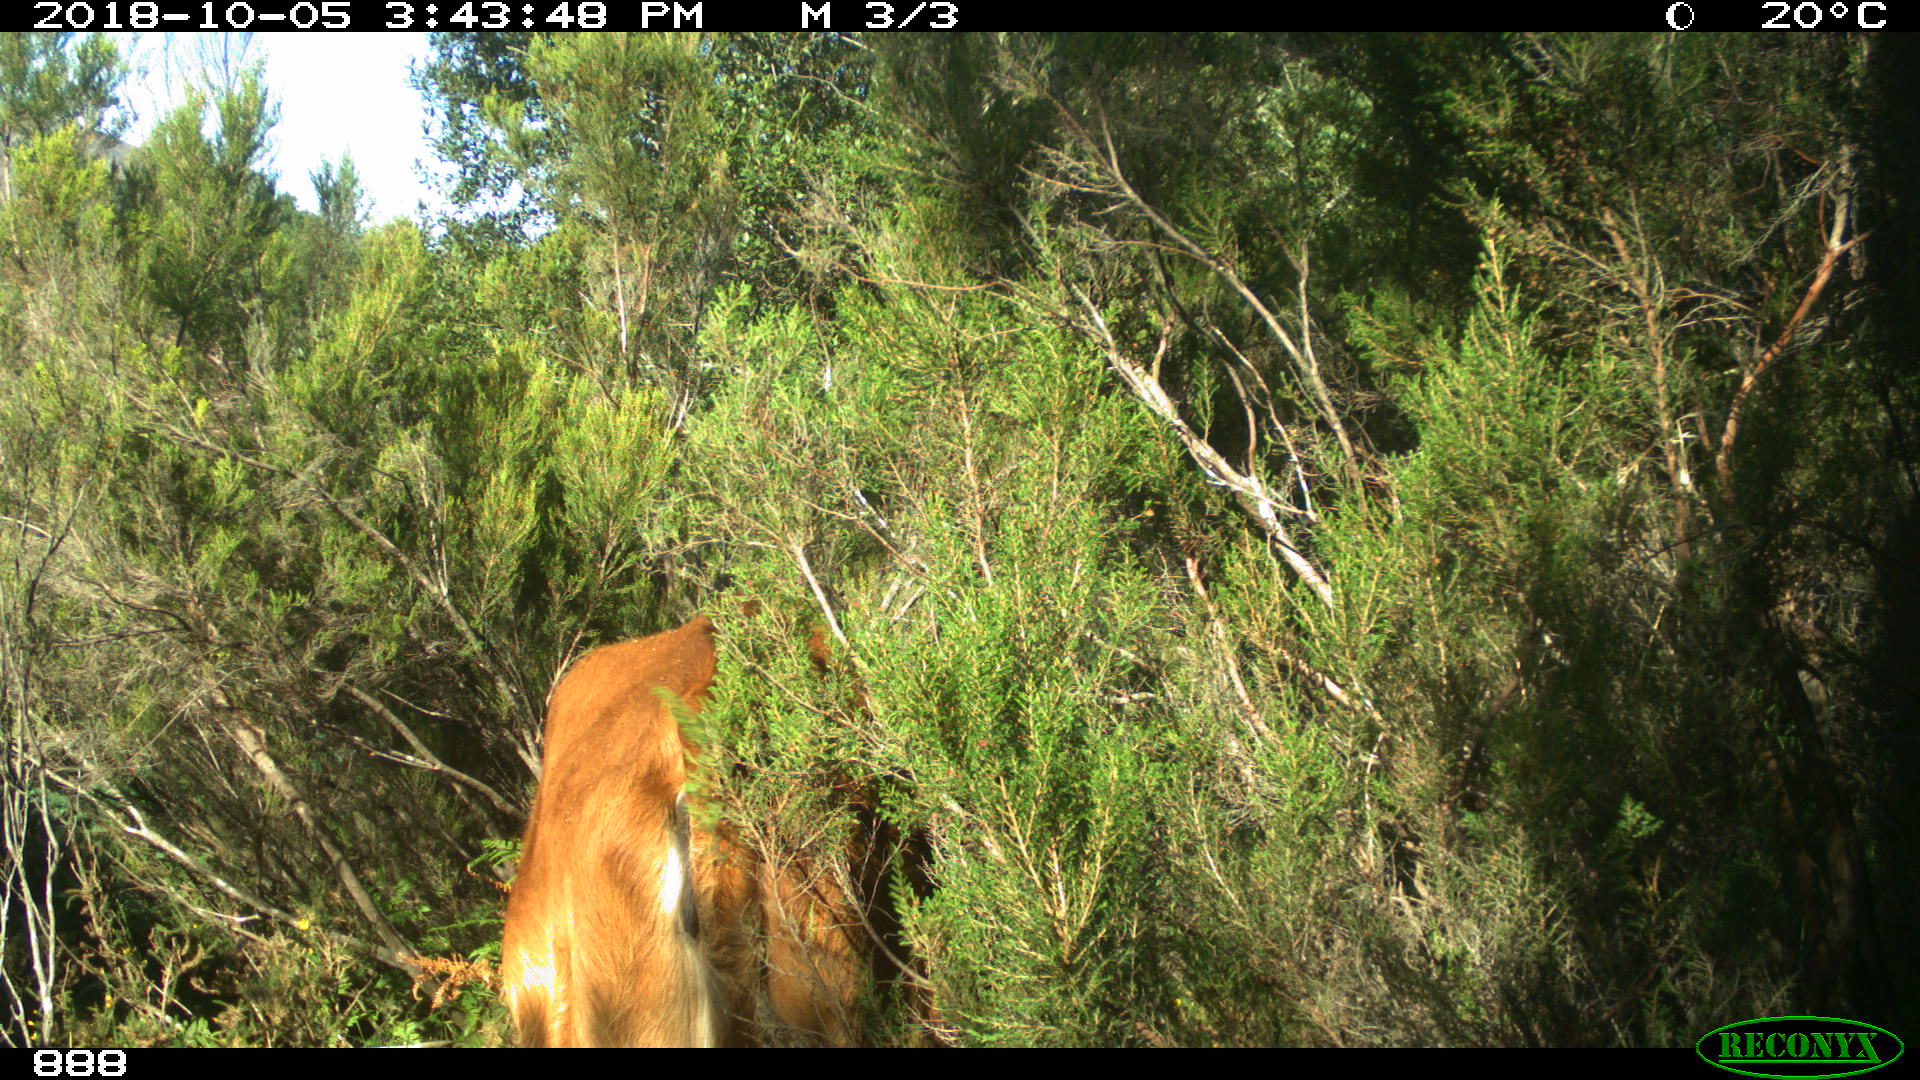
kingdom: Animalia
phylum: Chordata
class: Mammalia
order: Artiodactyla
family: Bovidae
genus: Bos
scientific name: Bos taurus
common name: Domesticated cattle
